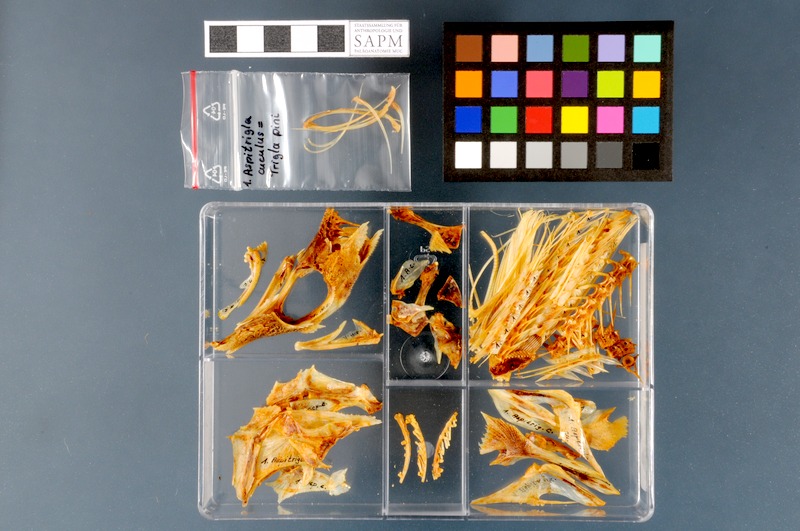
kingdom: Animalia
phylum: Chordata
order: Scorpaeniformes
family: Triglidae
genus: Chelidonichthys
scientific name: Chelidonichthys cuculus
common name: Red gurnard
